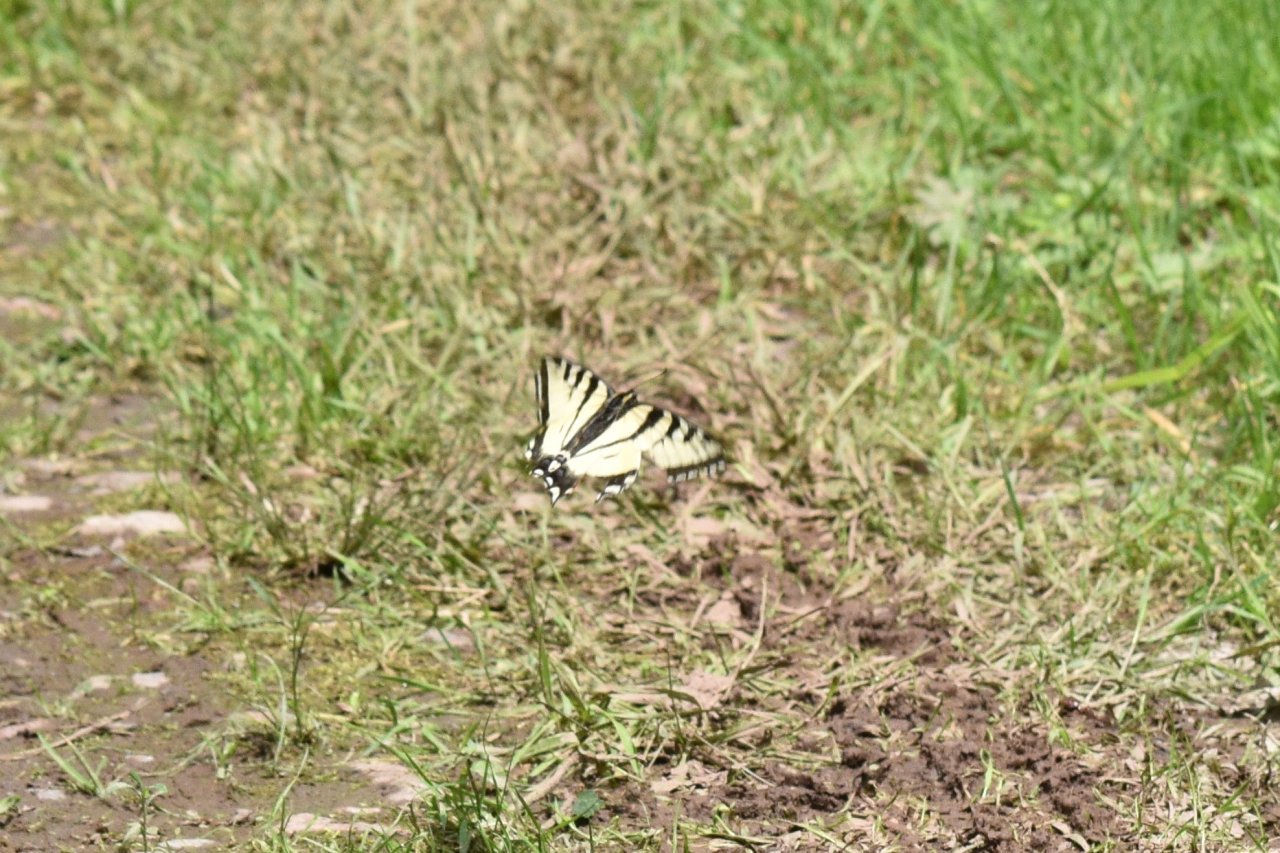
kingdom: Animalia
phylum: Arthropoda
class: Insecta
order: Lepidoptera
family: Papilionidae
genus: Pterourus
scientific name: Pterourus canadensis
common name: Canadian Tiger Swallowtail
